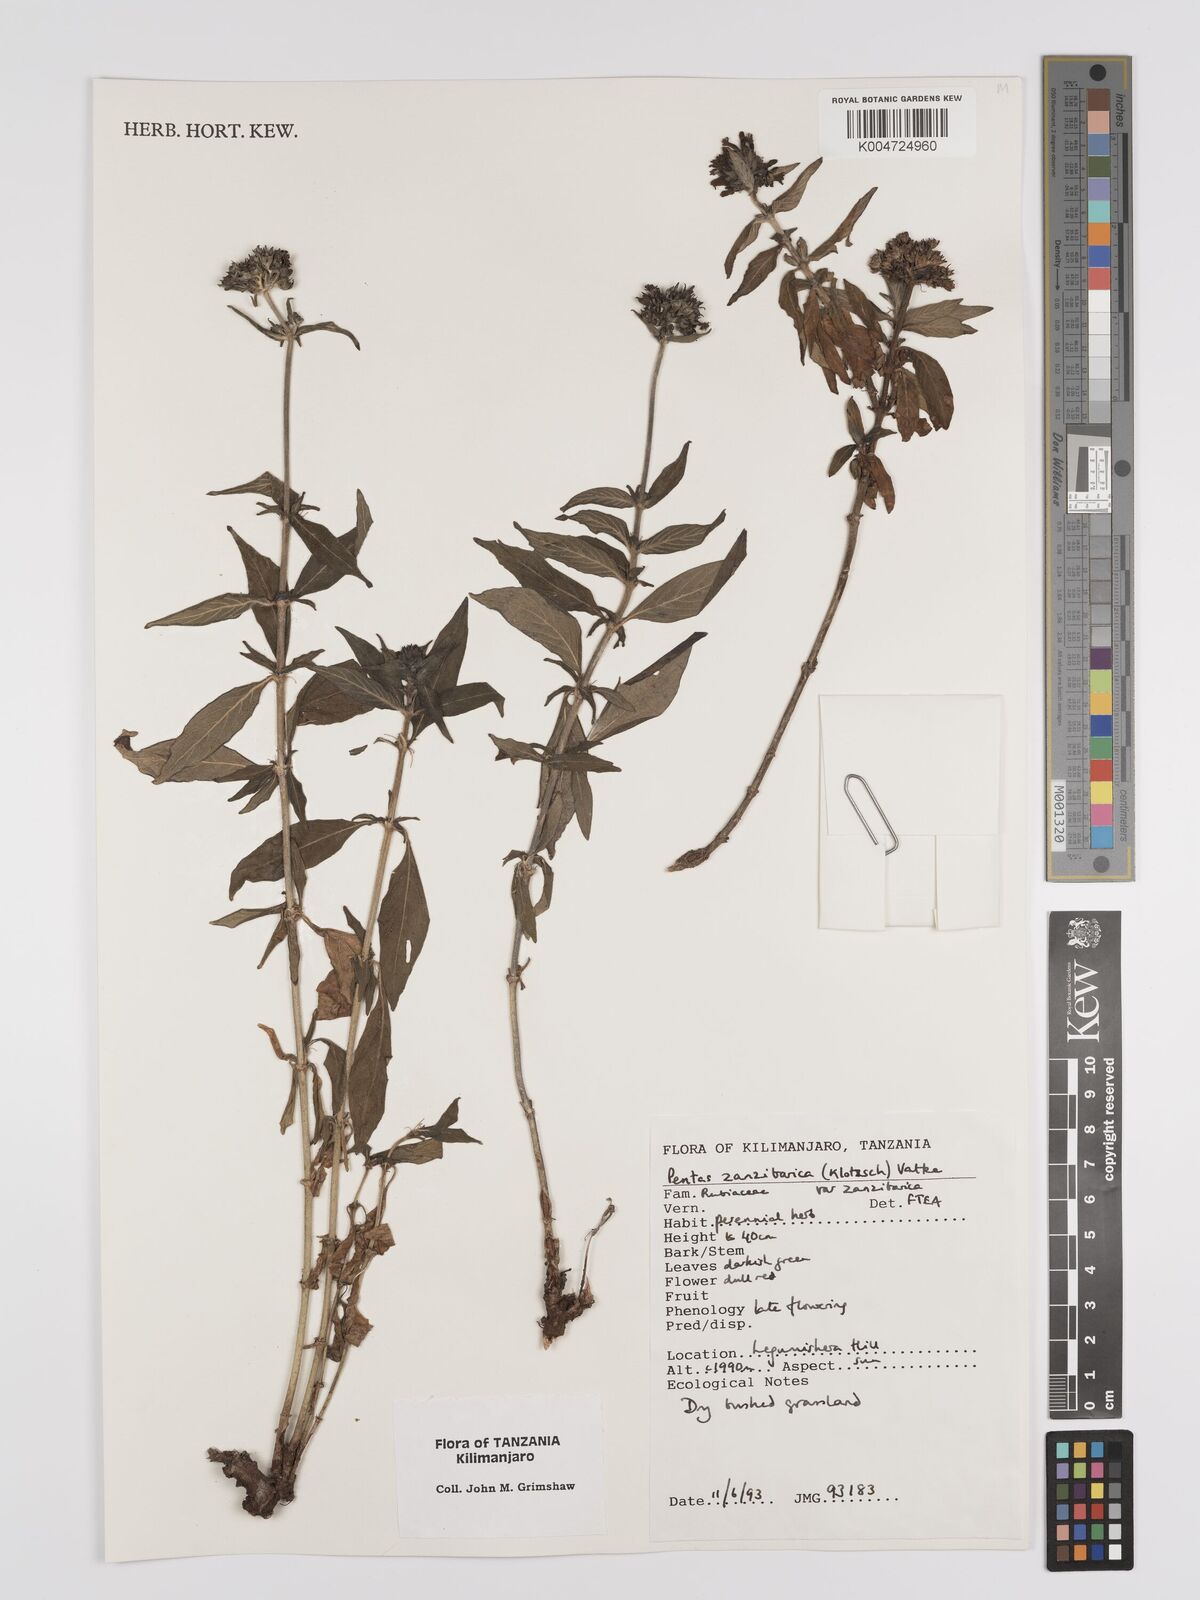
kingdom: Plantae
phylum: Tracheophyta
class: Magnoliopsida
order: Gentianales
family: Rubiaceae
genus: Pentas
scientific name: Pentas zanzibarica
